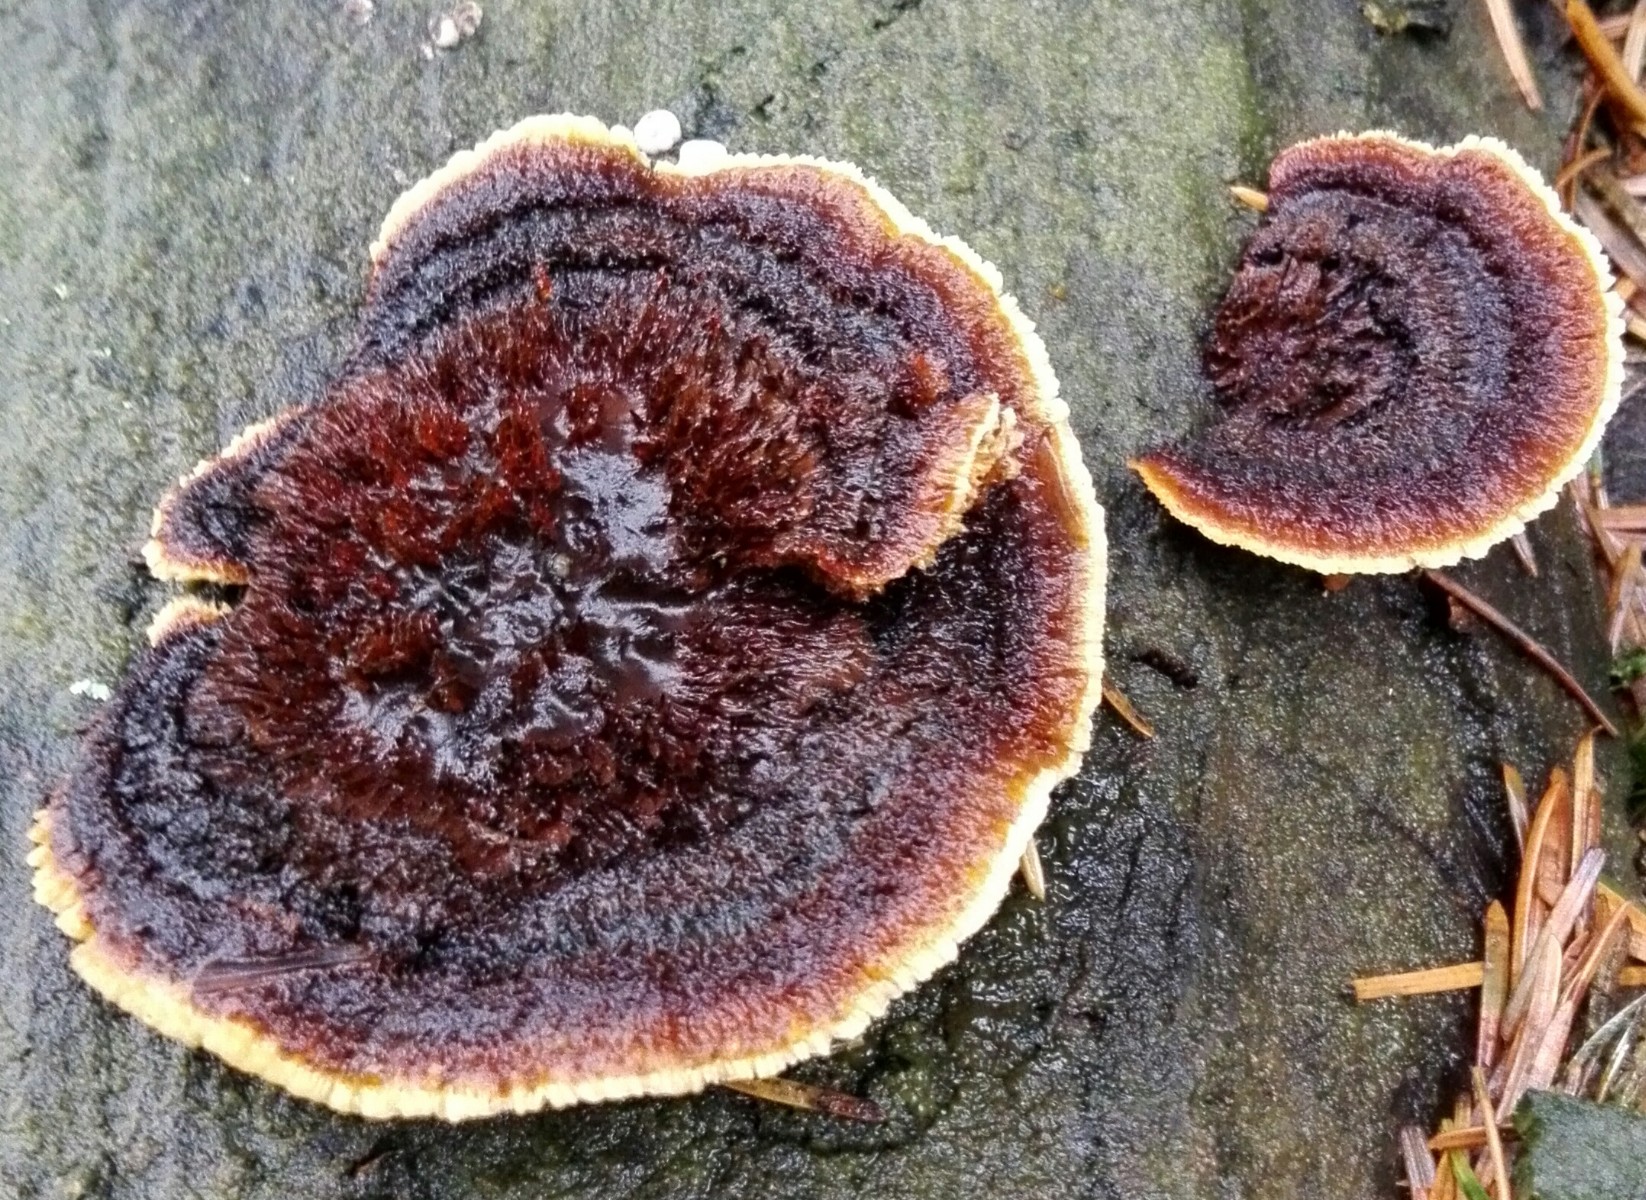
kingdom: Fungi
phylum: Basidiomycota
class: Agaricomycetes
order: Gloeophyllales
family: Gloeophyllaceae
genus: Gloeophyllum
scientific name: Gloeophyllum sepiarium
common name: fyrre-korkhat
